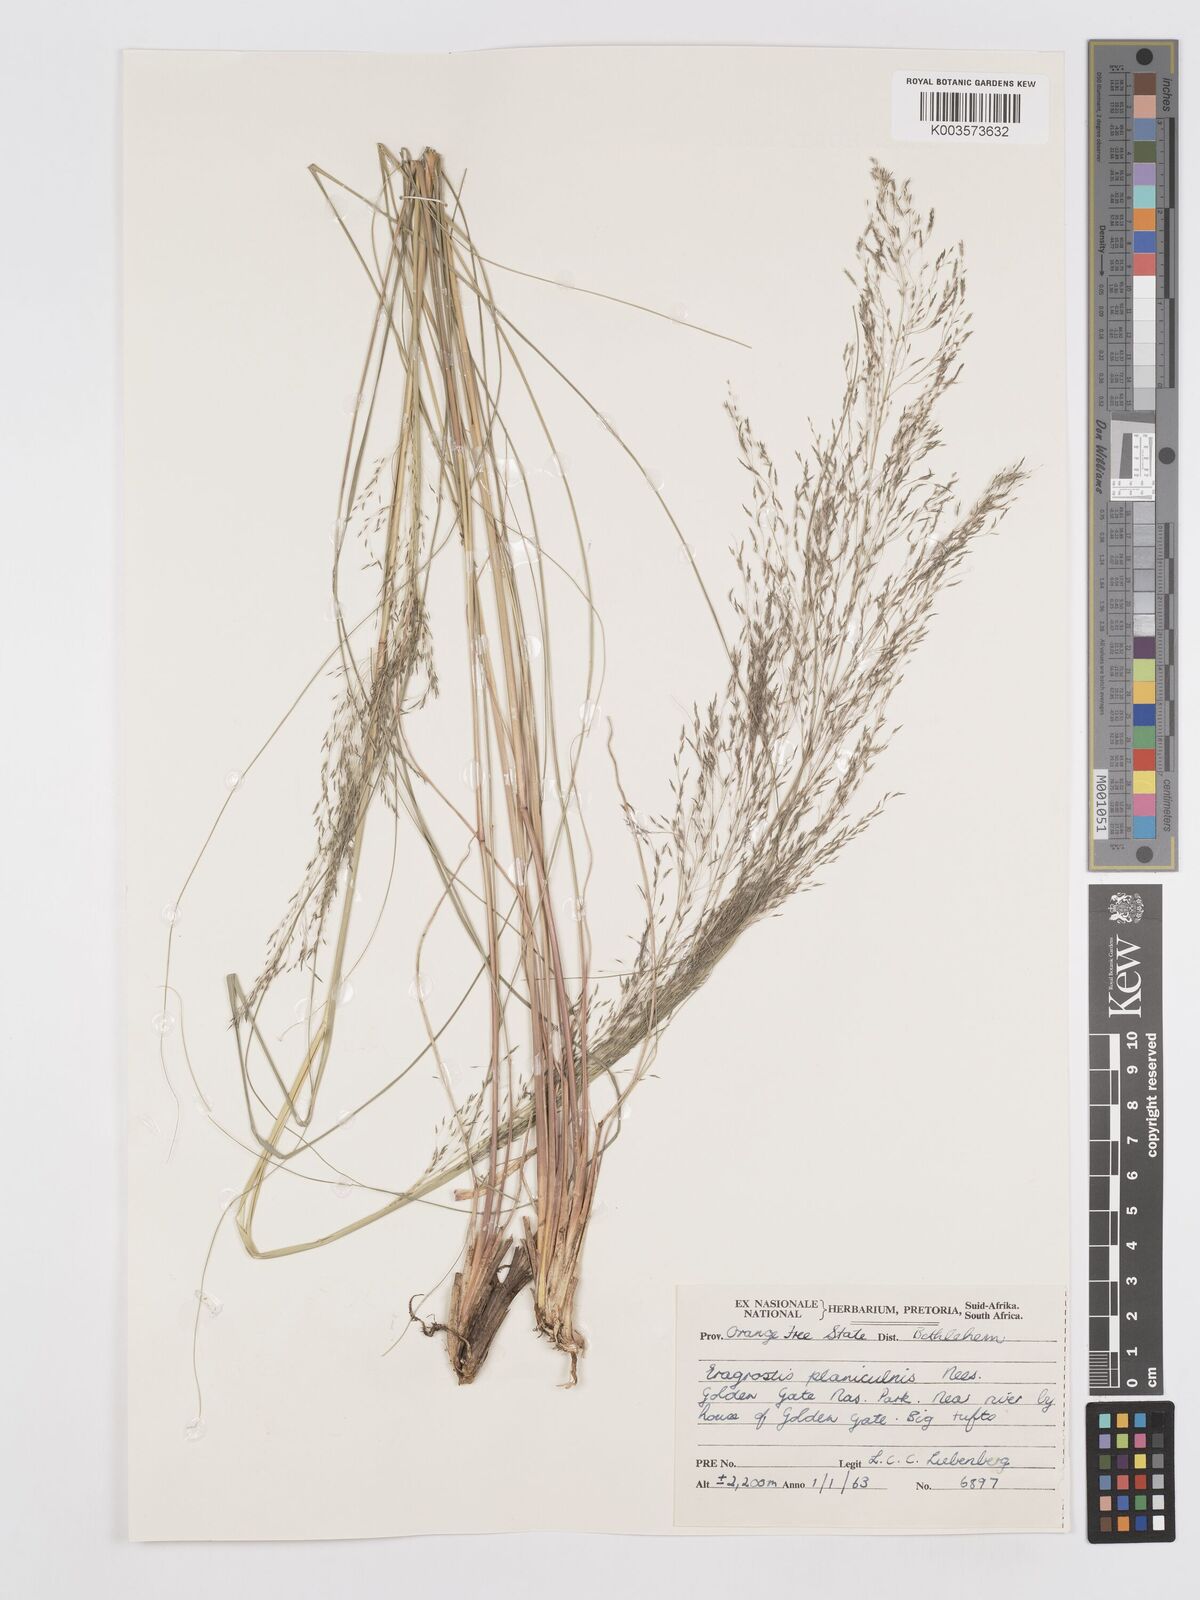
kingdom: Plantae
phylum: Tracheophyta
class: Liliopsida
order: Poales
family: Poaceae
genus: Eragrostis
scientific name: Eragrostis planiculmis
